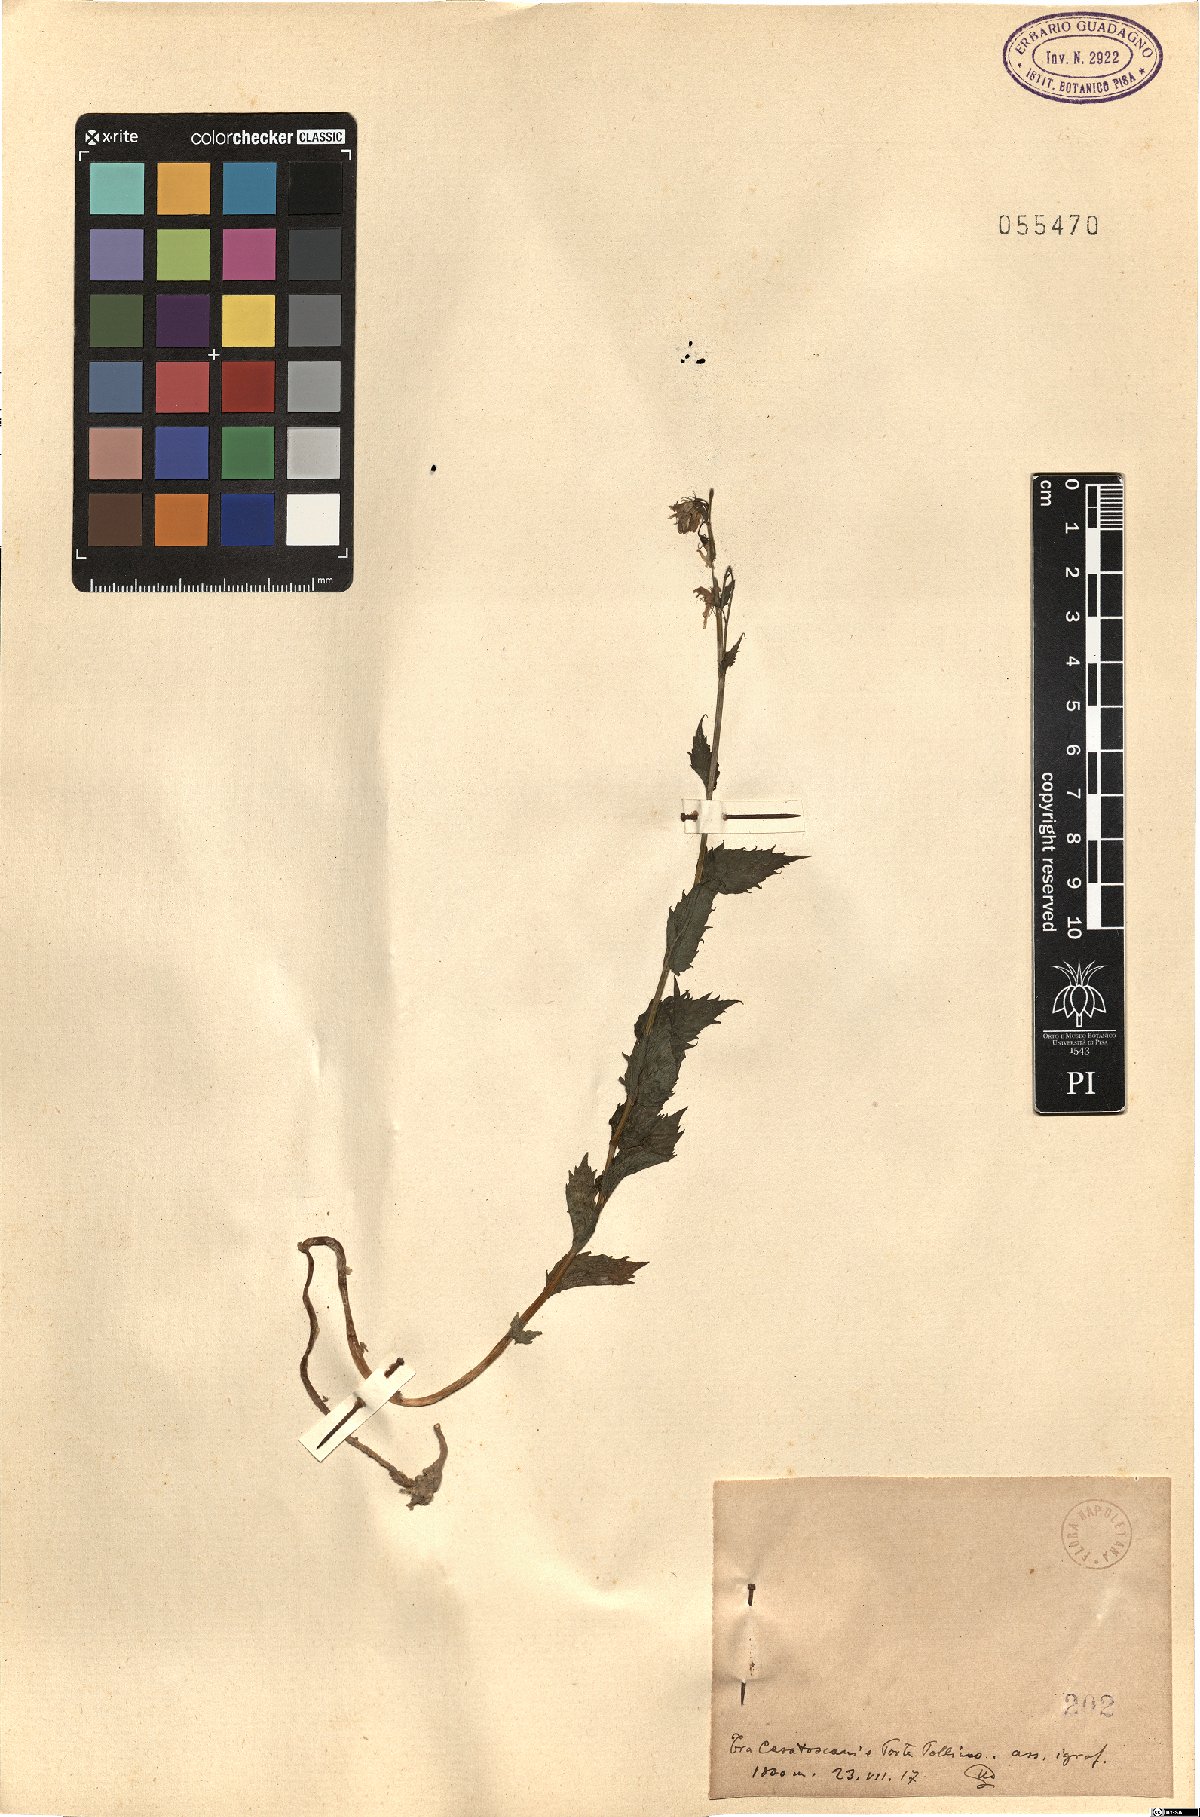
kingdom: Plantae
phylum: Tracheophyta
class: Magnoliopsida
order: Asterales
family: Campanulaceae
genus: Campanula
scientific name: Campanula
